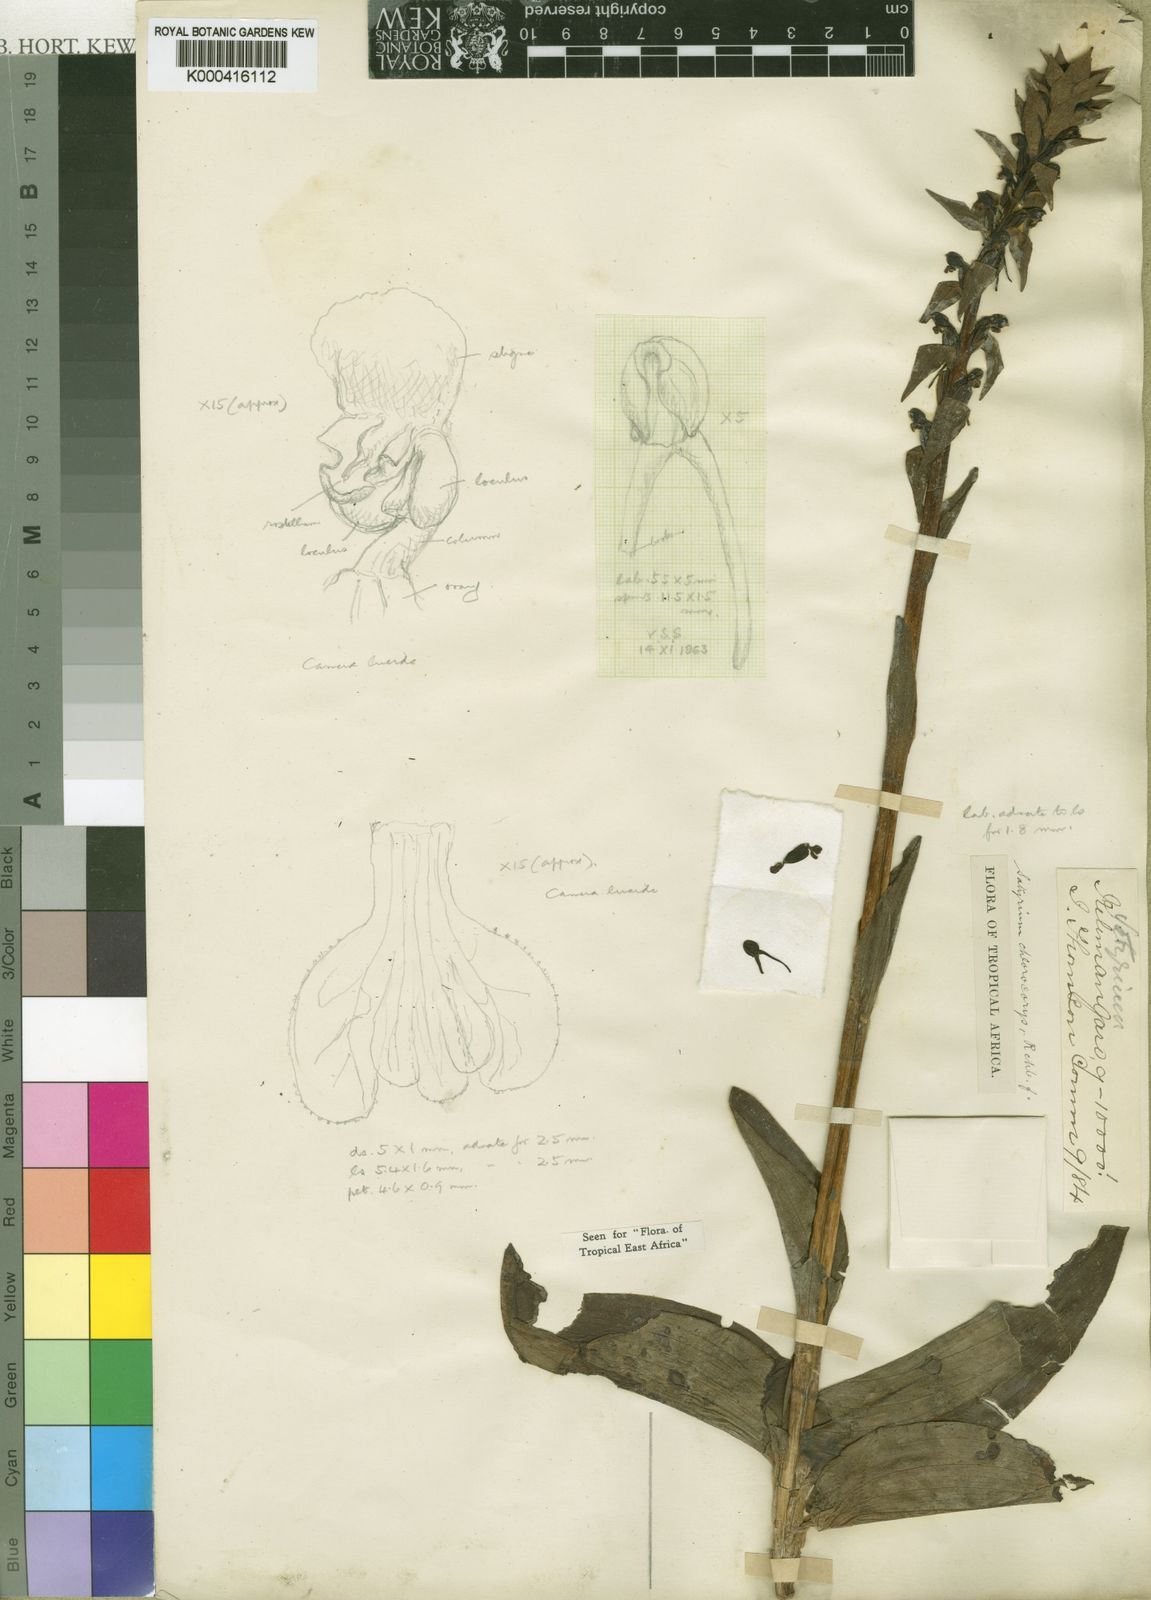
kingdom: Plantae
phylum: Tracheophyta
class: Liliopsida
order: Asparagales
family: Orchidaceae
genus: Satyrium
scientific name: Satyrium chlorocorys
